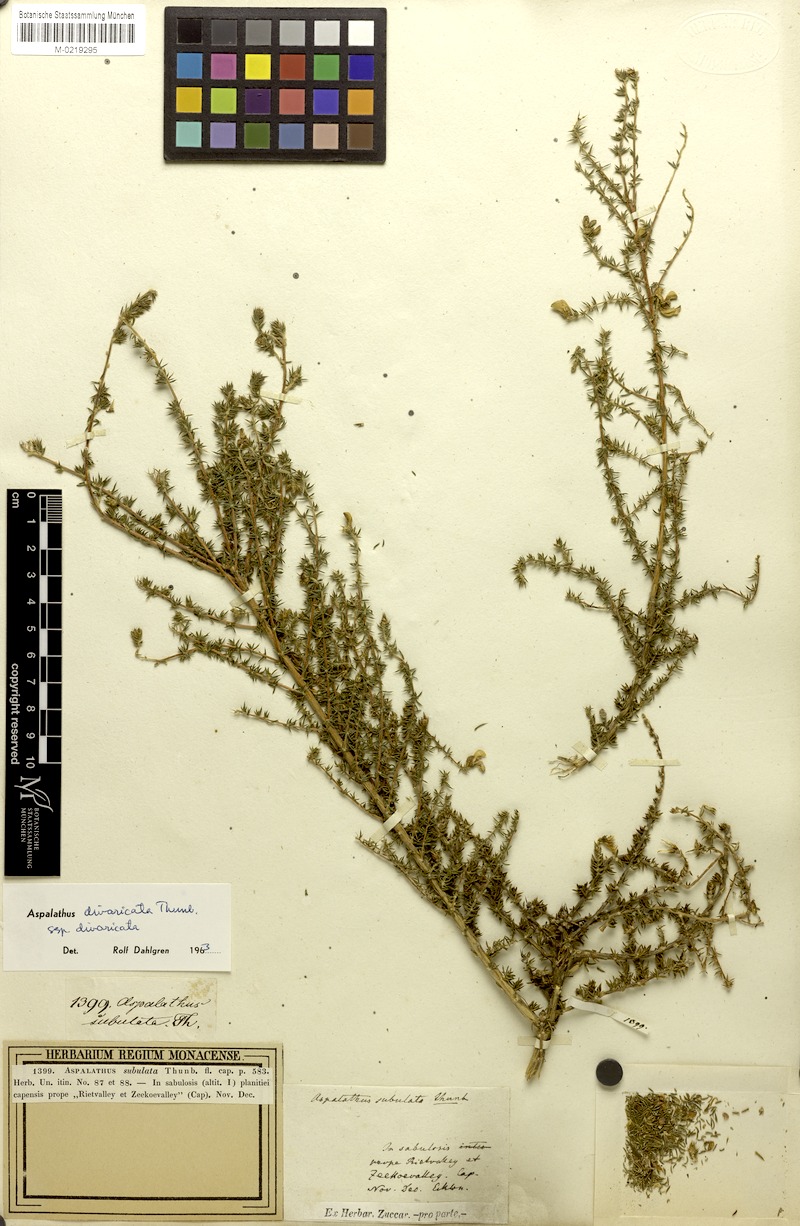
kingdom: Plantae
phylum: Tracheophyta
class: Magnoliopsida
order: Fabales
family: Fabaceae
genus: Aspalathus
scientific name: Aspalathus divaricata
